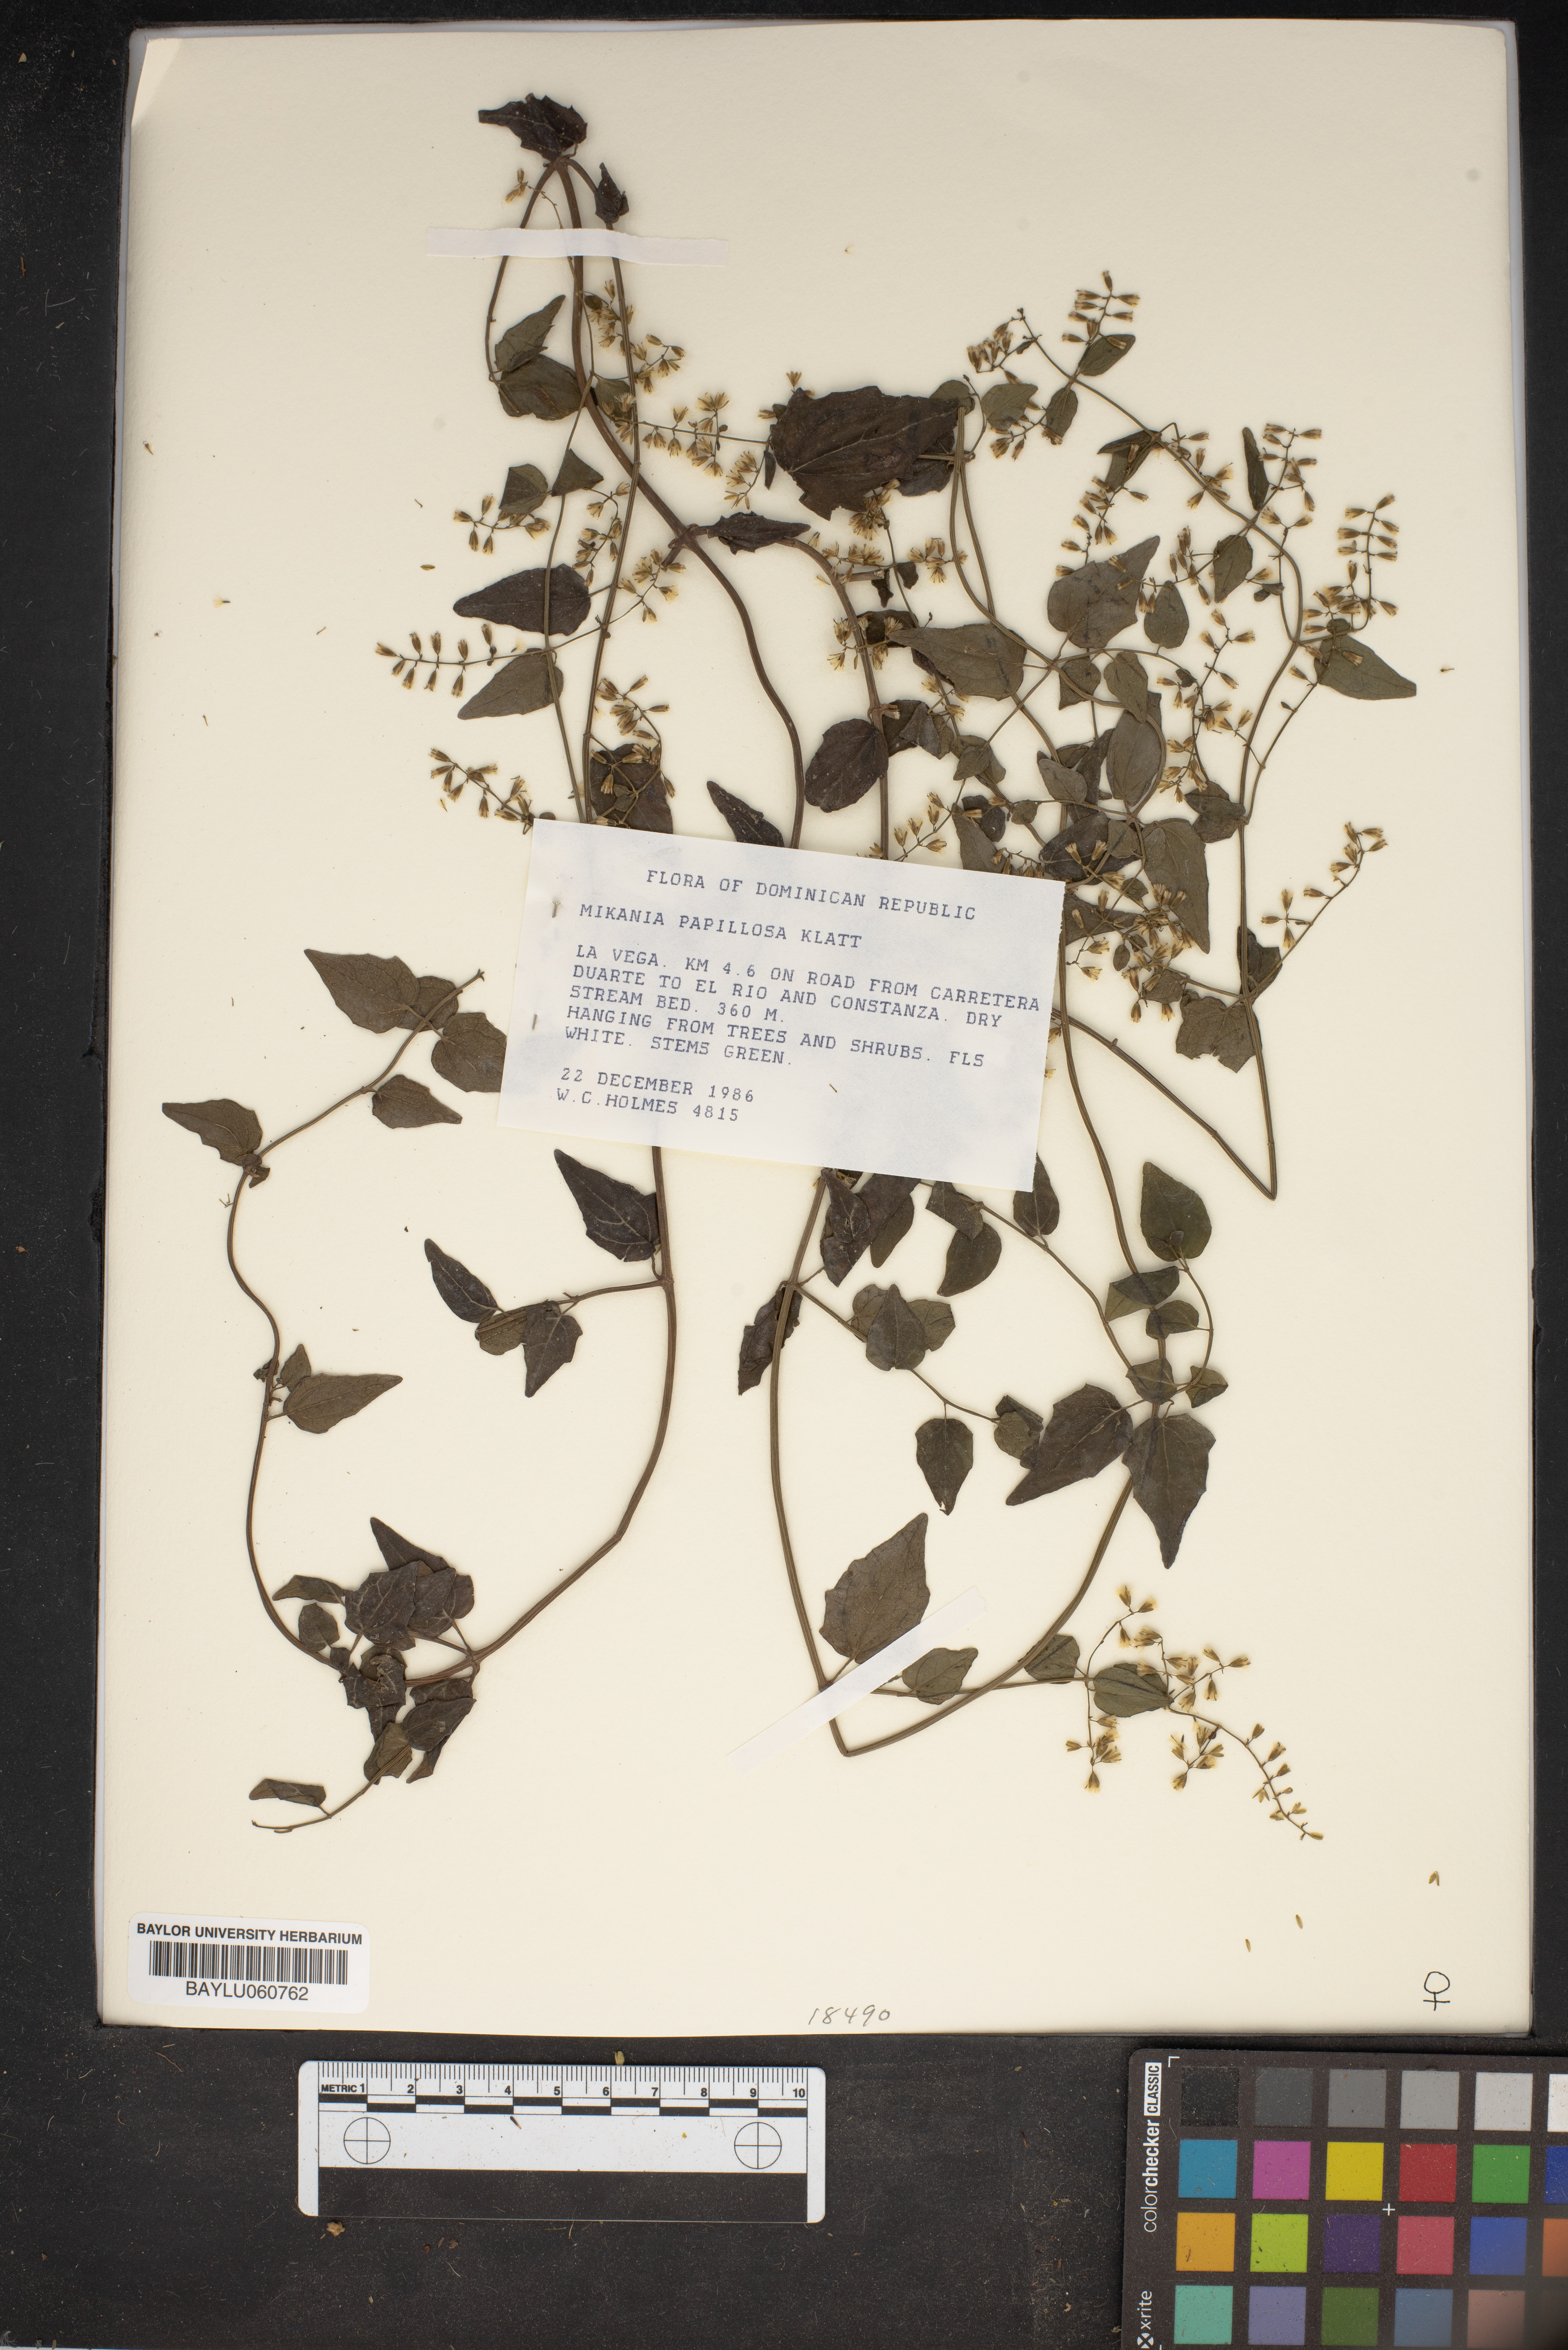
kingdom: Plantae
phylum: Tracheophyta
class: Magnoliopsida
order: Asterales
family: Asteraceae
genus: Mikania
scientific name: Mikania papillosa
